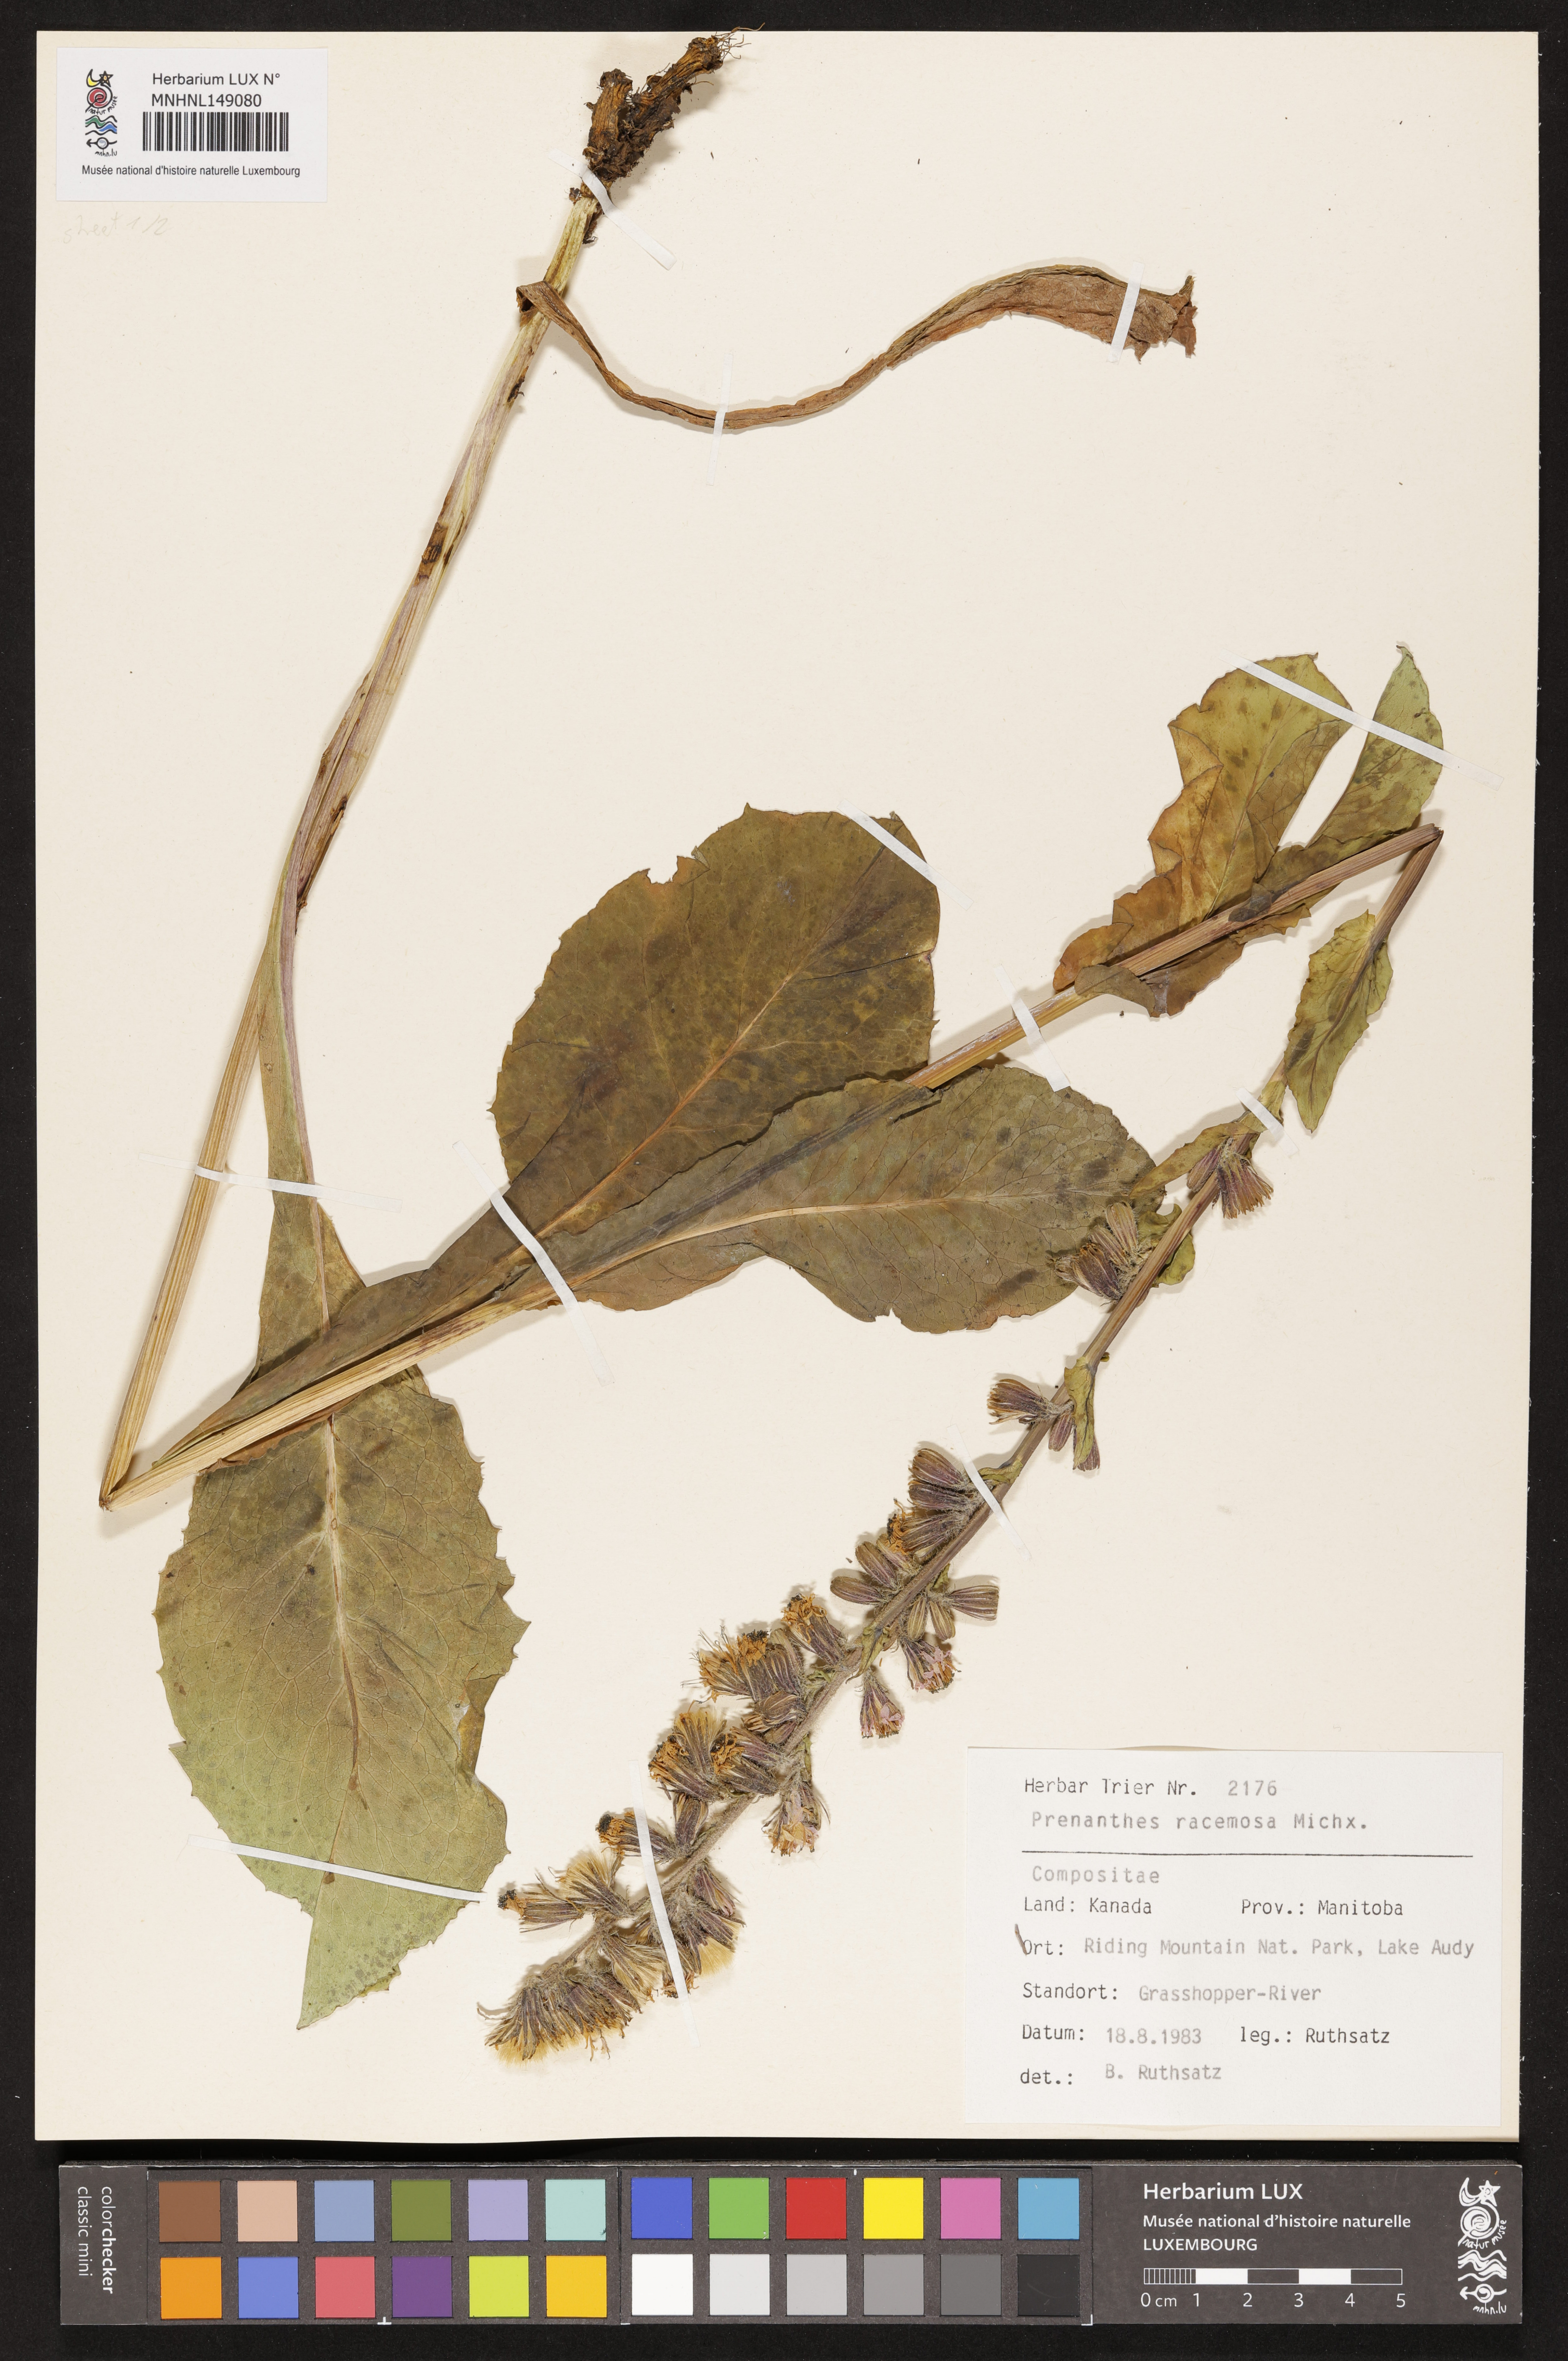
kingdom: Plantae
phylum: Tracheophyta
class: Magnoliopsida
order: Asterales
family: Asteraceae
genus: Nabalus
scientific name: Nabalus racemosus
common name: Glaucous white lettuce
